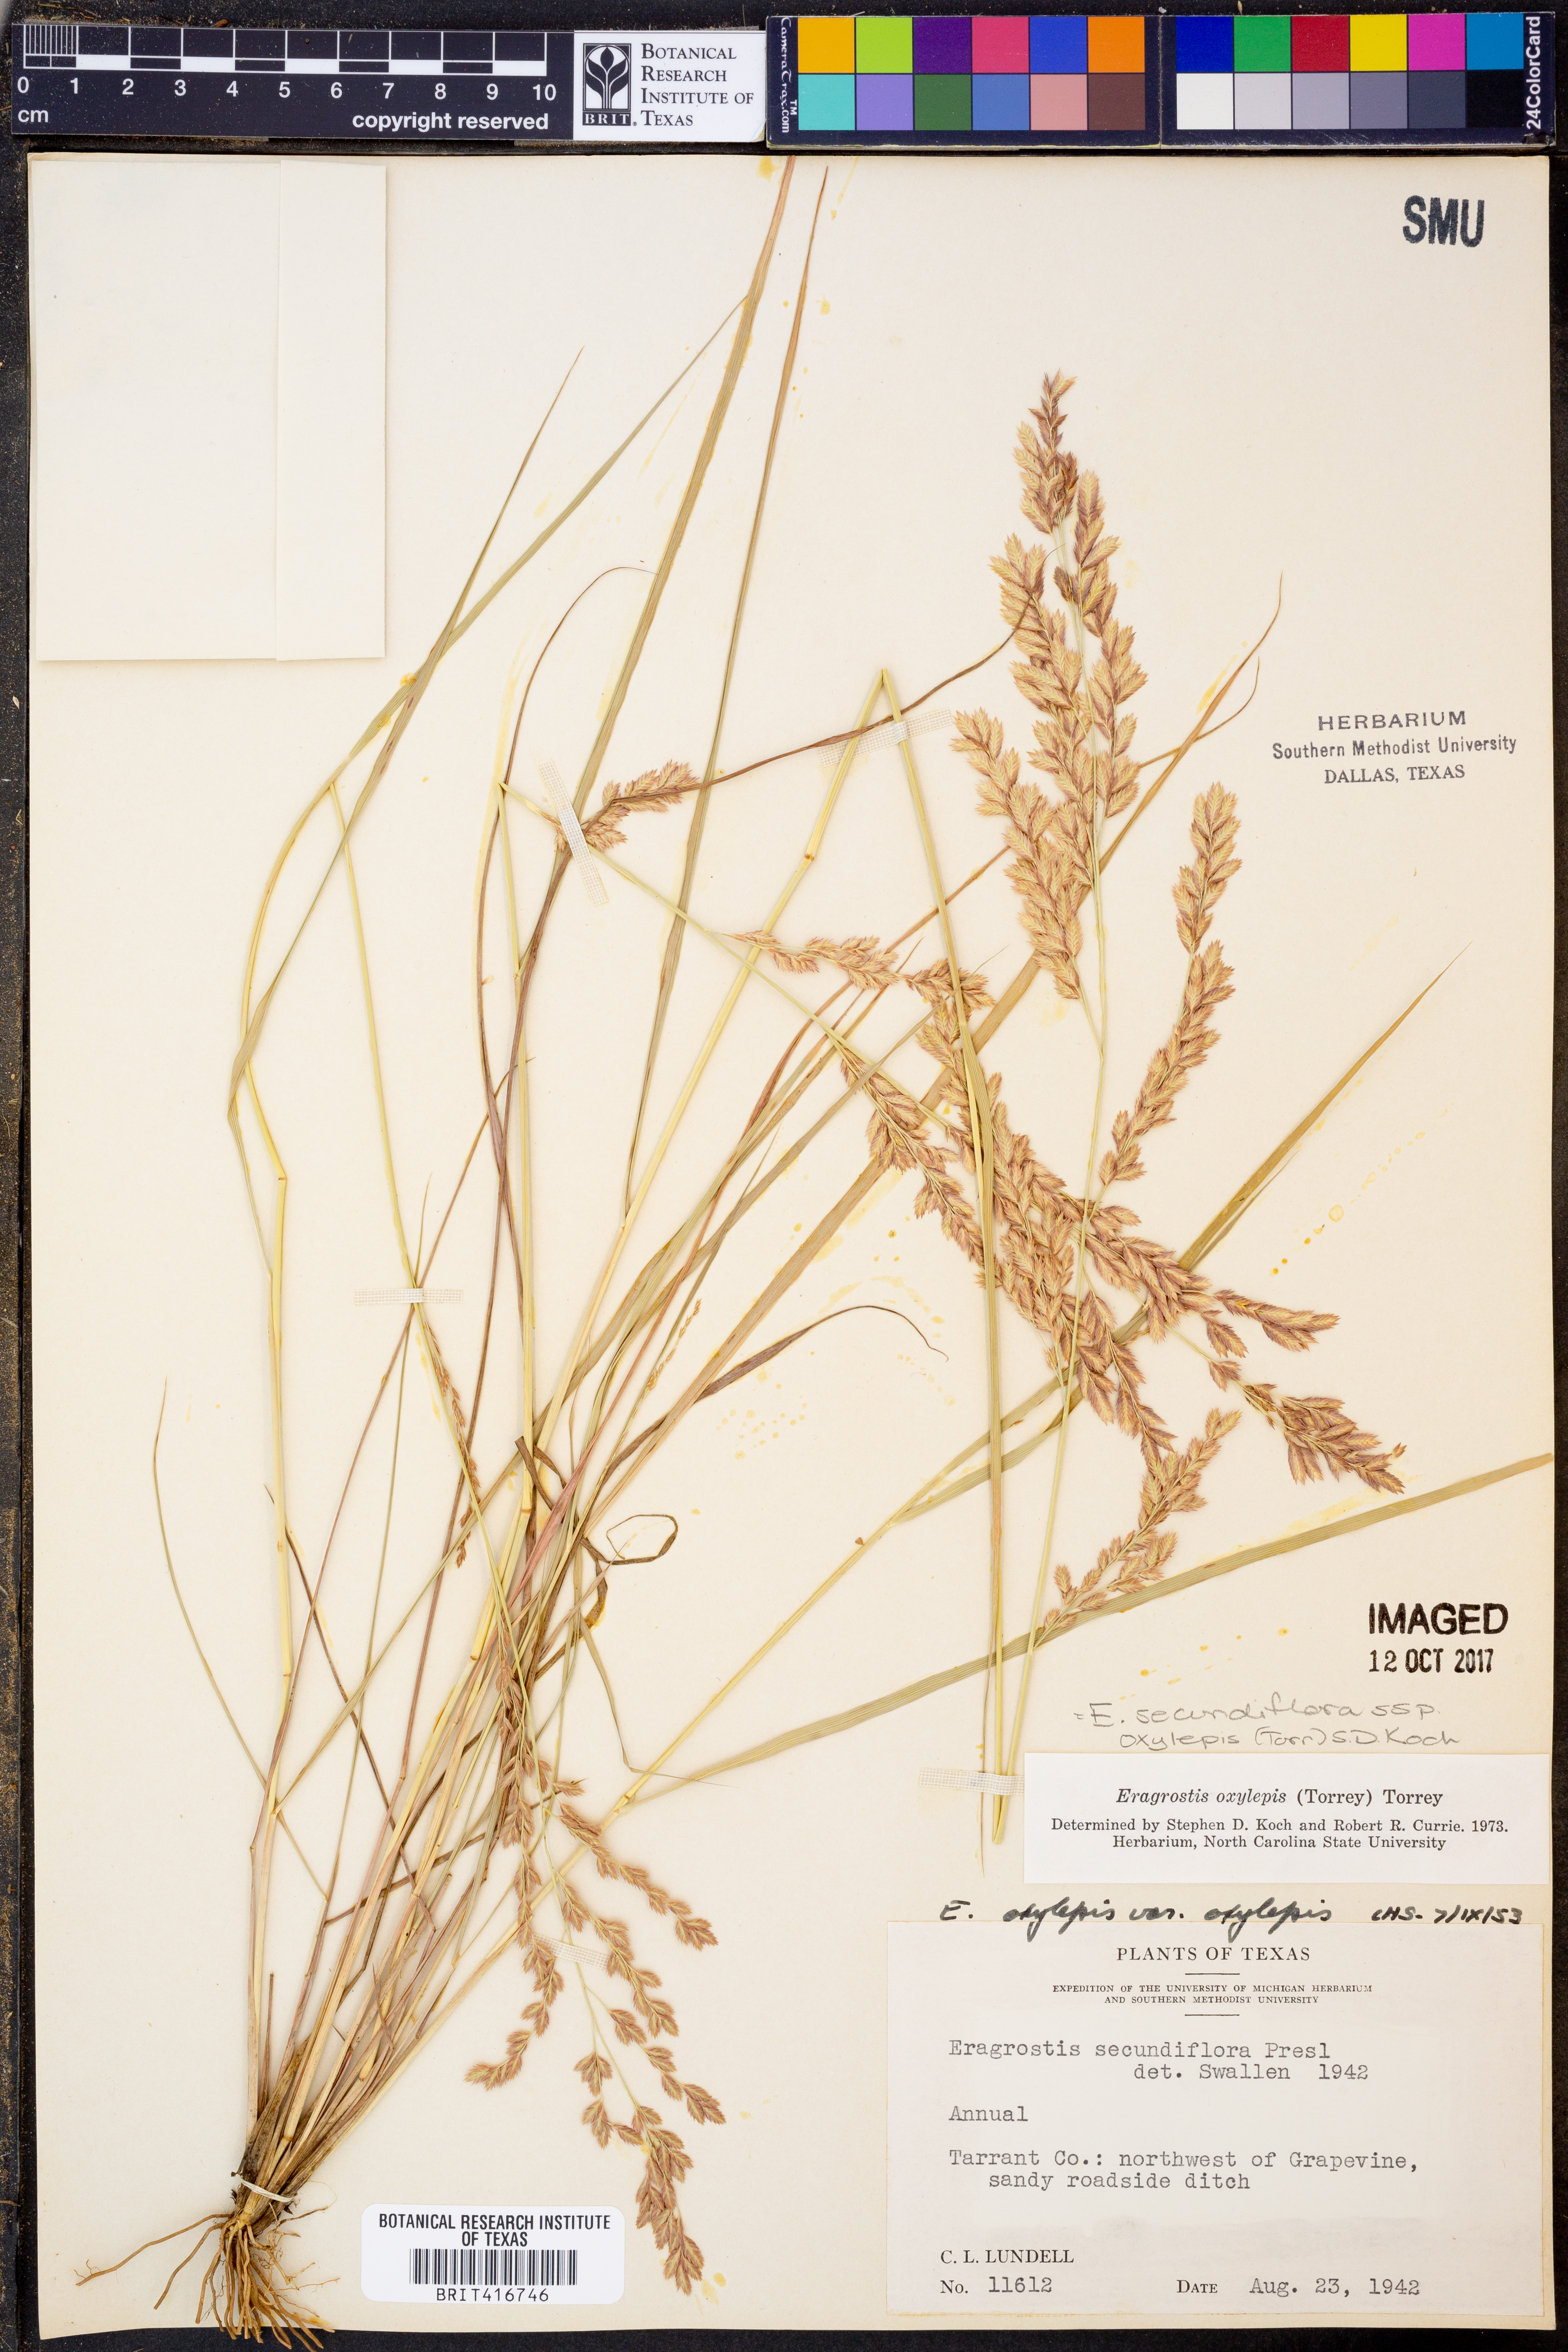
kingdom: Plantae
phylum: Tracheophyta
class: Liliopsida
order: Poales
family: Poaceae
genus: Eragrostis
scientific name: Eragrostis secundiflora
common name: Red love grass
